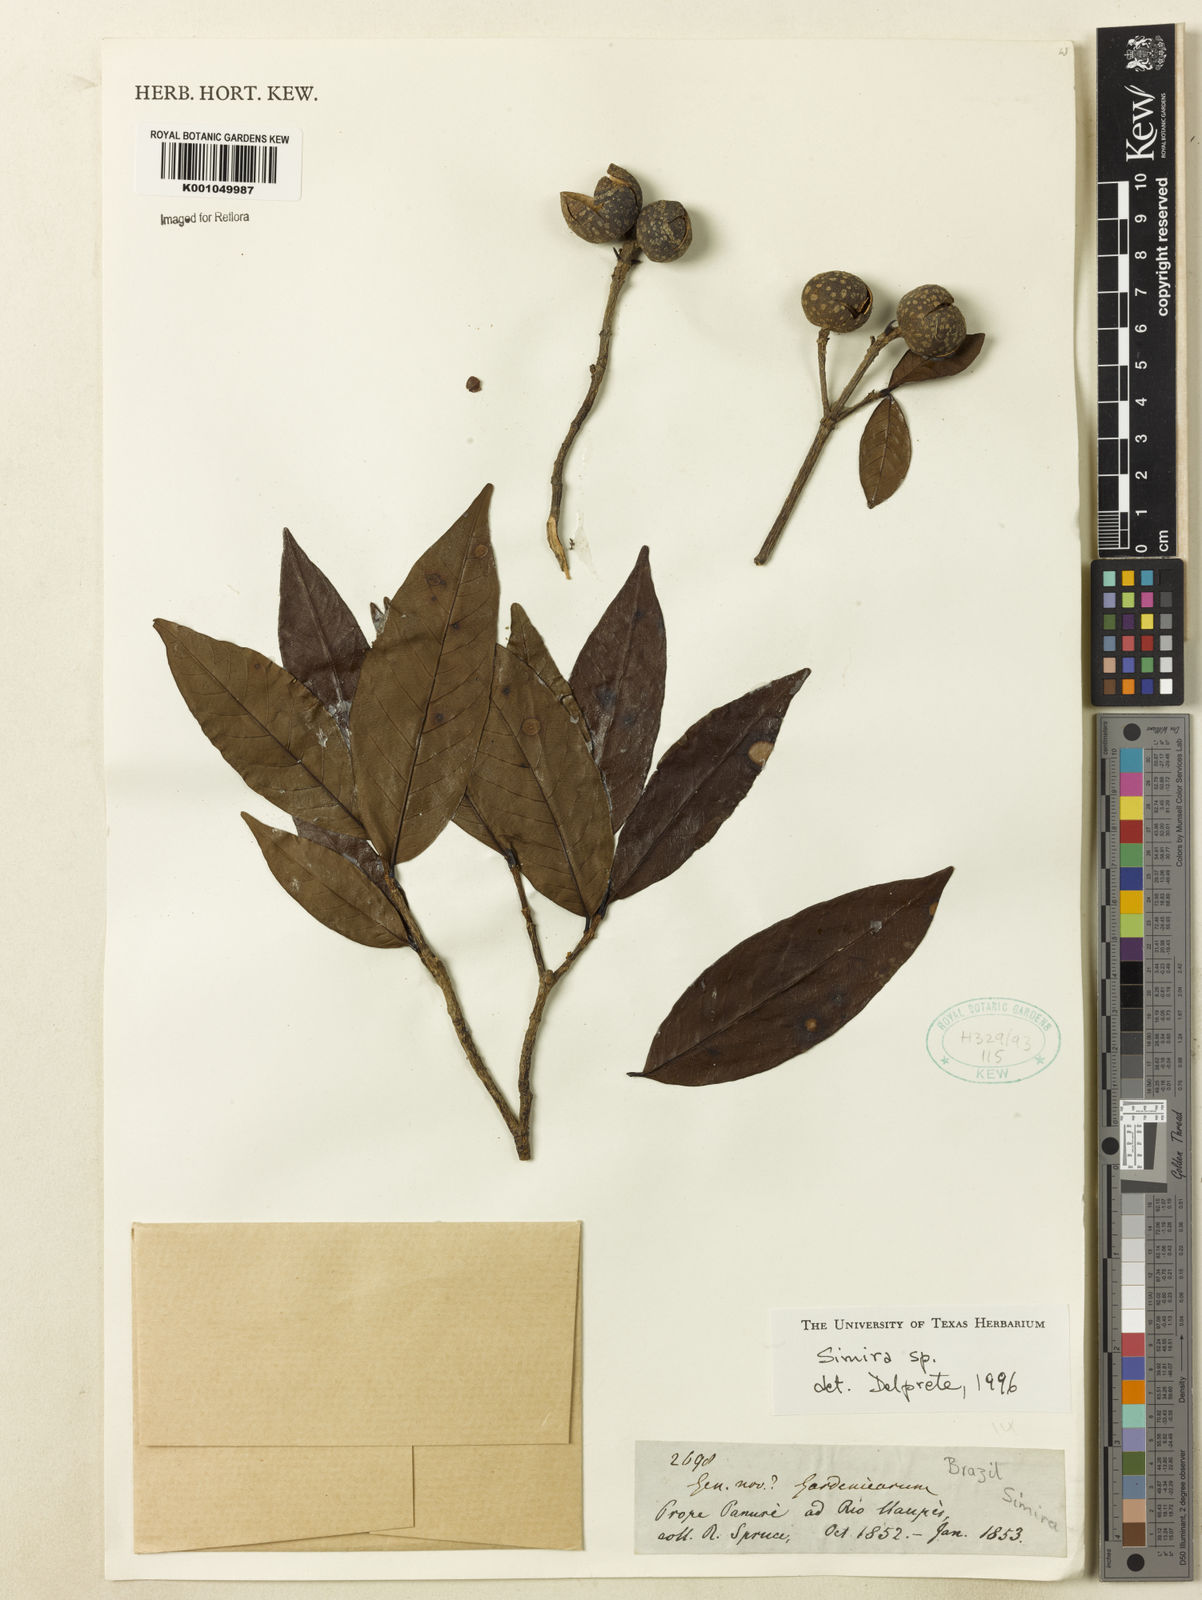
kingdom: Plantae
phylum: Tracheophyta
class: Magnoliopsida
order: Gentianales
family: Rubiaceae
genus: Simira
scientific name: Simira
